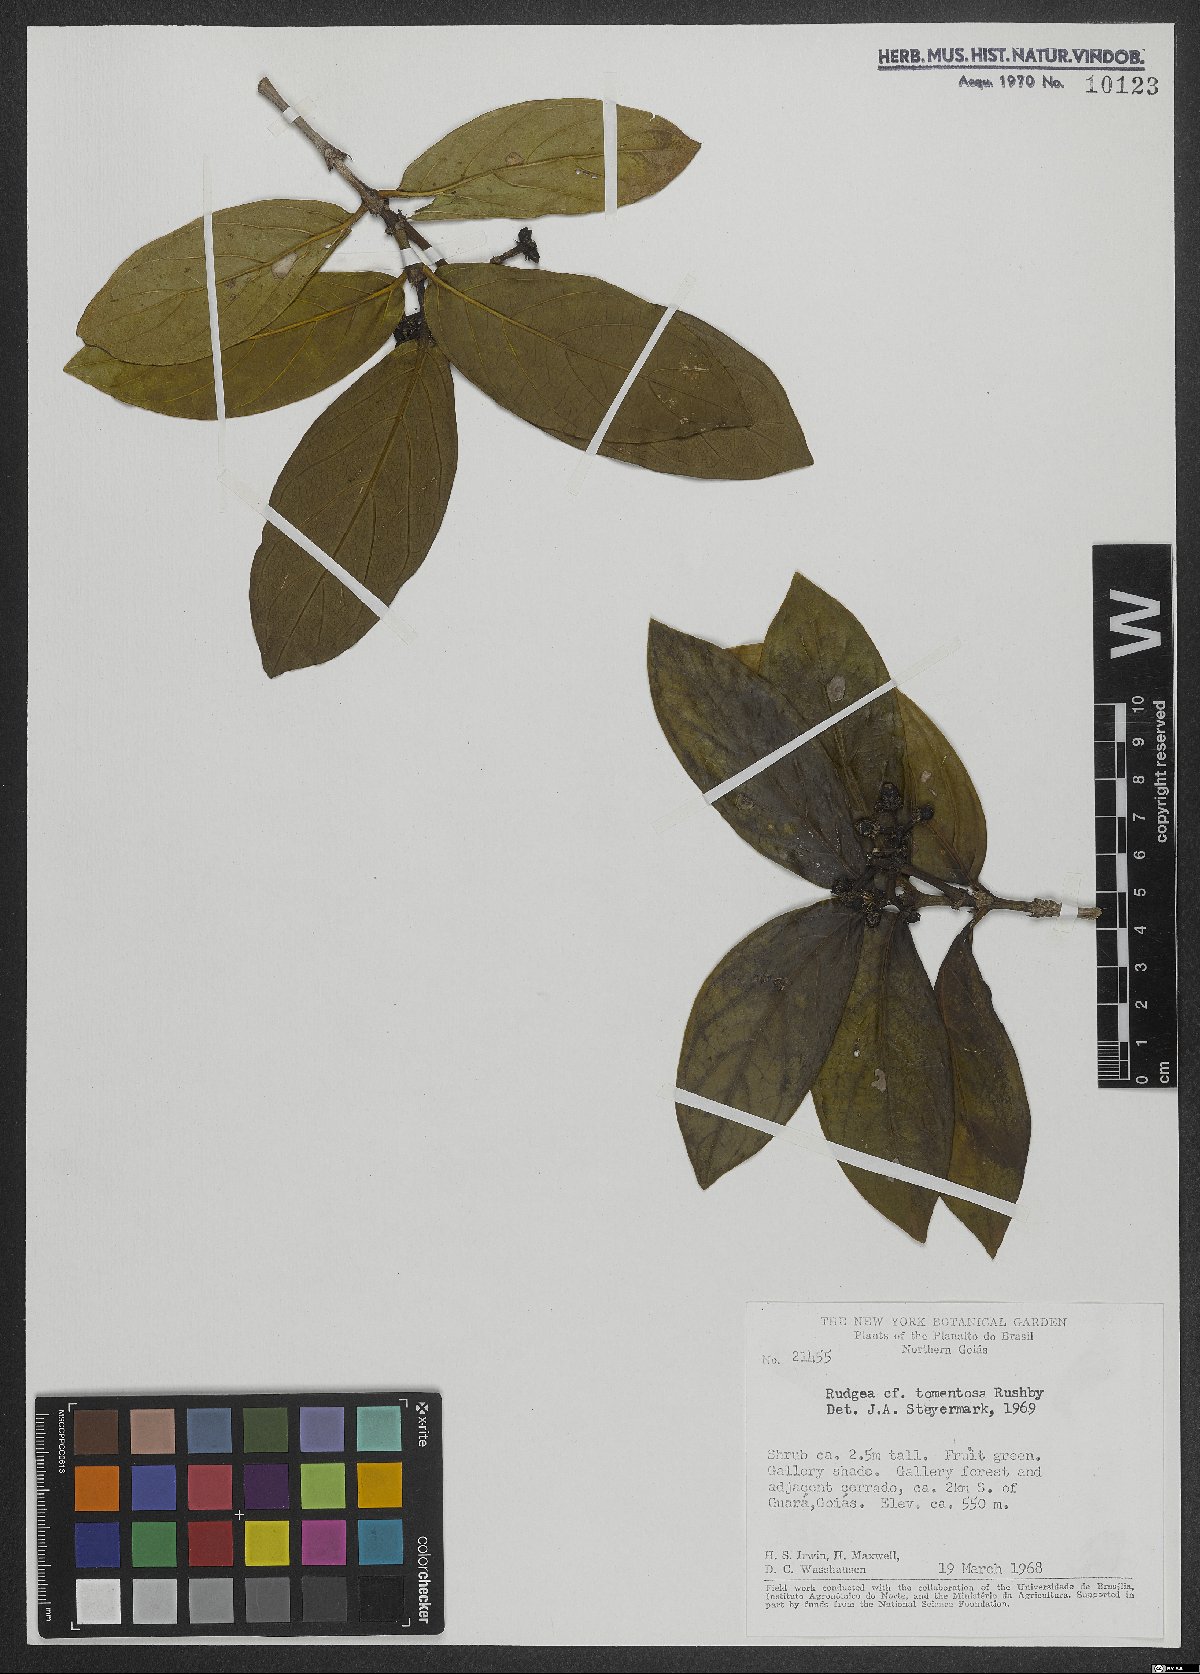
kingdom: Plantae
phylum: Tracheophyta
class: Magnoliopsida
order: Gentianales
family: Rubiaceae
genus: Rudgea
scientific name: Rudgea tomentosa
